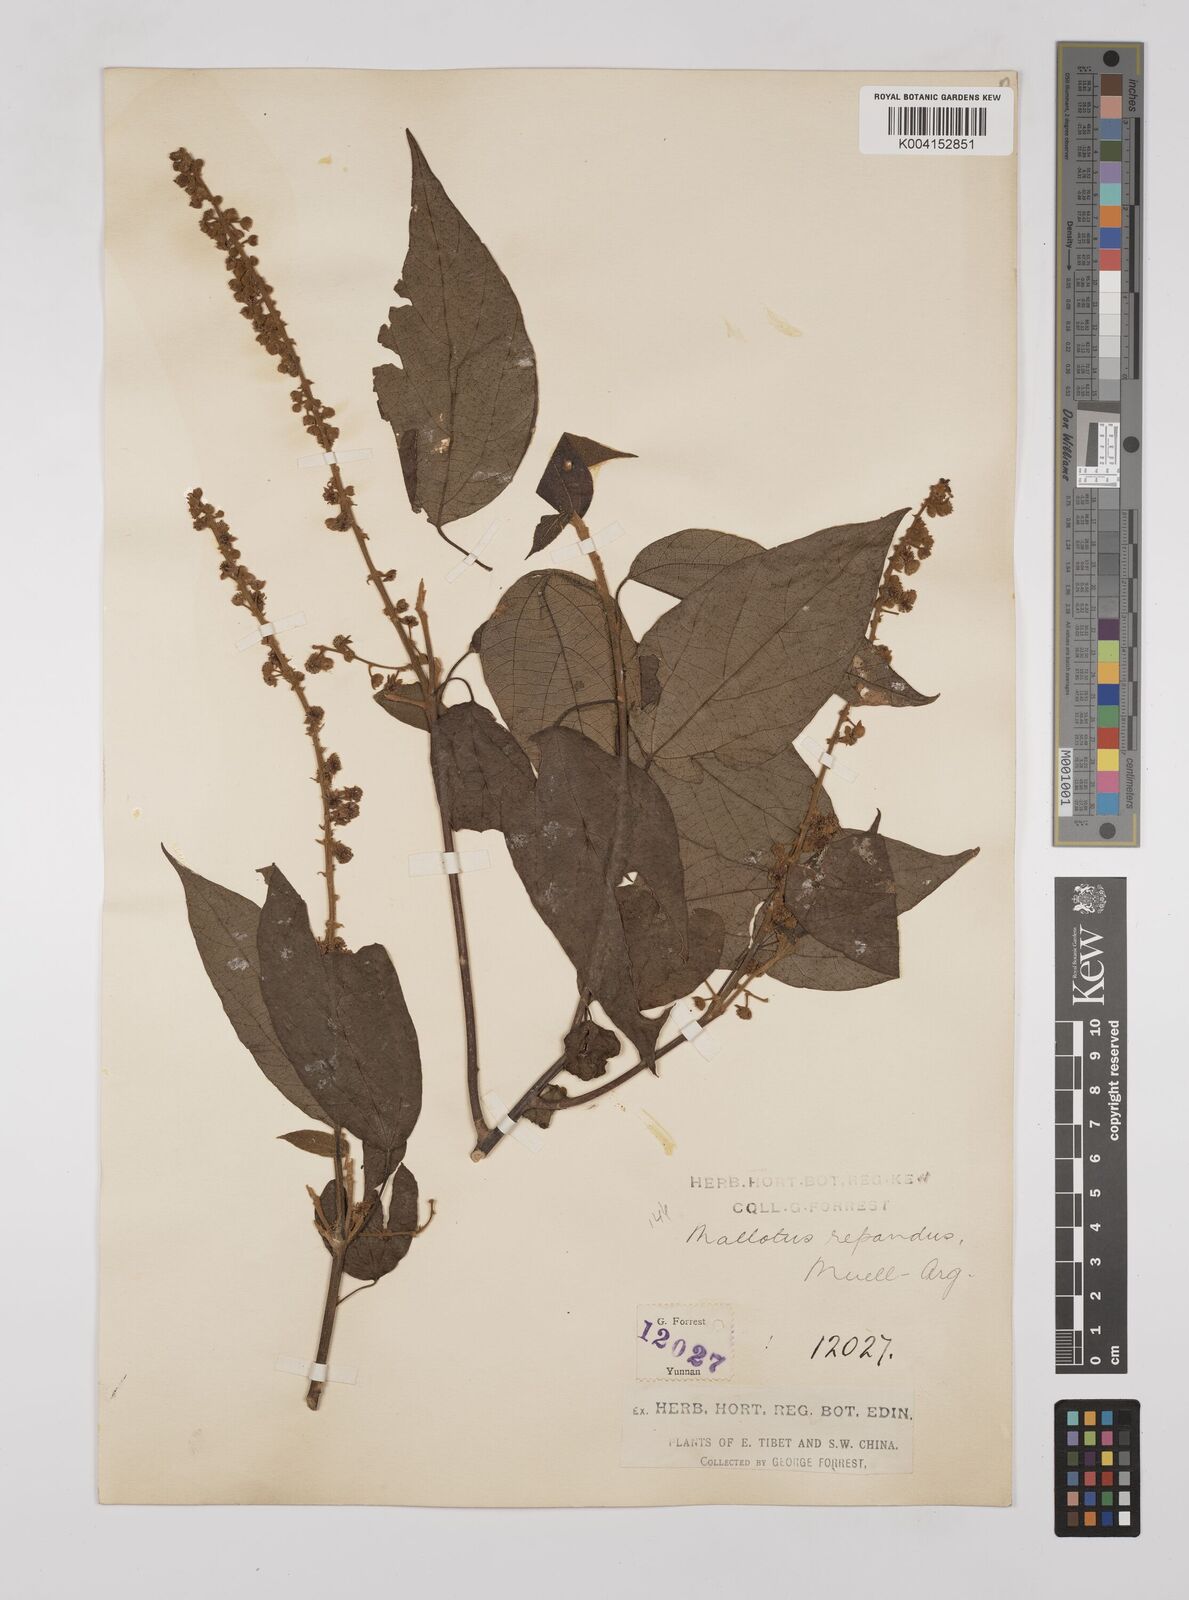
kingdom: Plantae
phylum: Tracheophyta
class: Magnoliopsida
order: Malpighiales
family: Euphorbiaceae
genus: Mallotus
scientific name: Mallotus illudens
